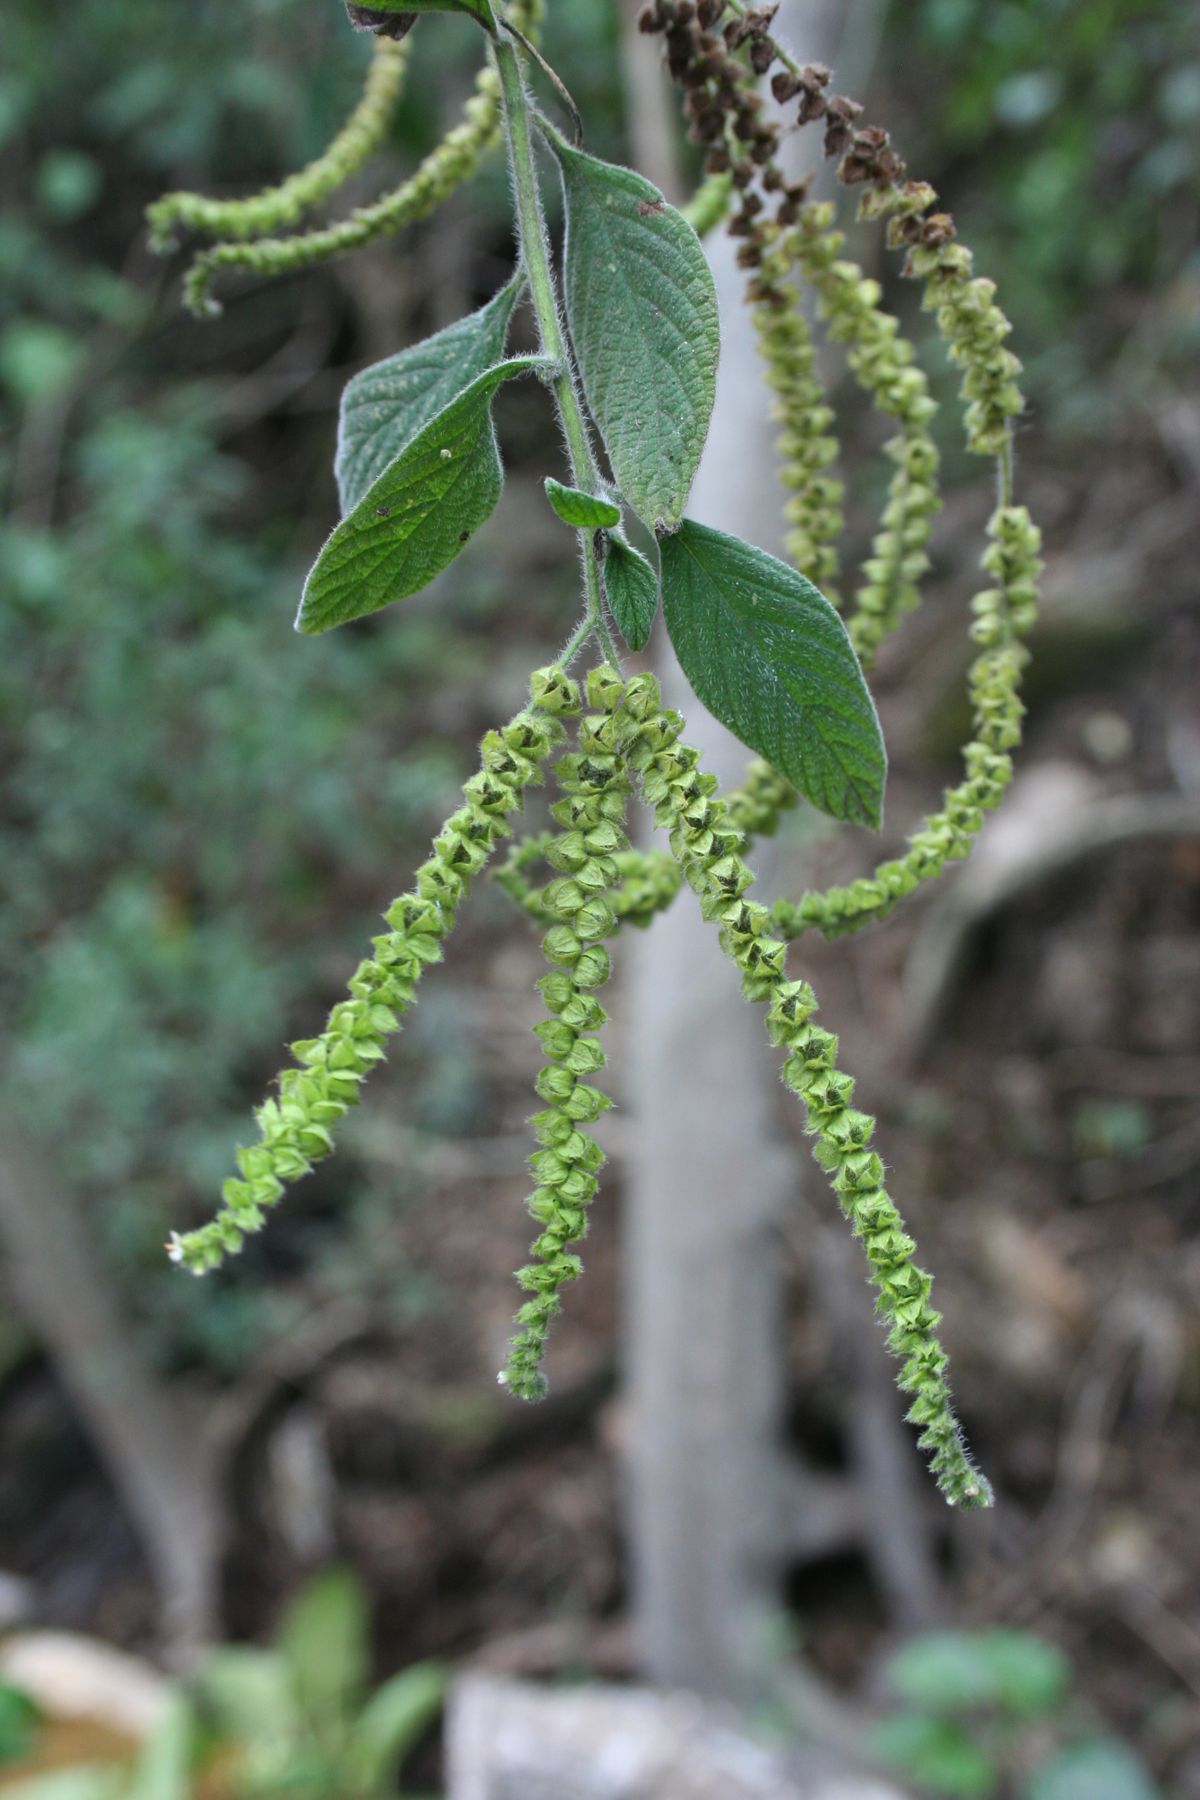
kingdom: Plantae
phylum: Tracheophyta
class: Magnoliopsida
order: Boraginales
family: Heliotropiaceae
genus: Heliotropium
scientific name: Heliotropium rufipilum
